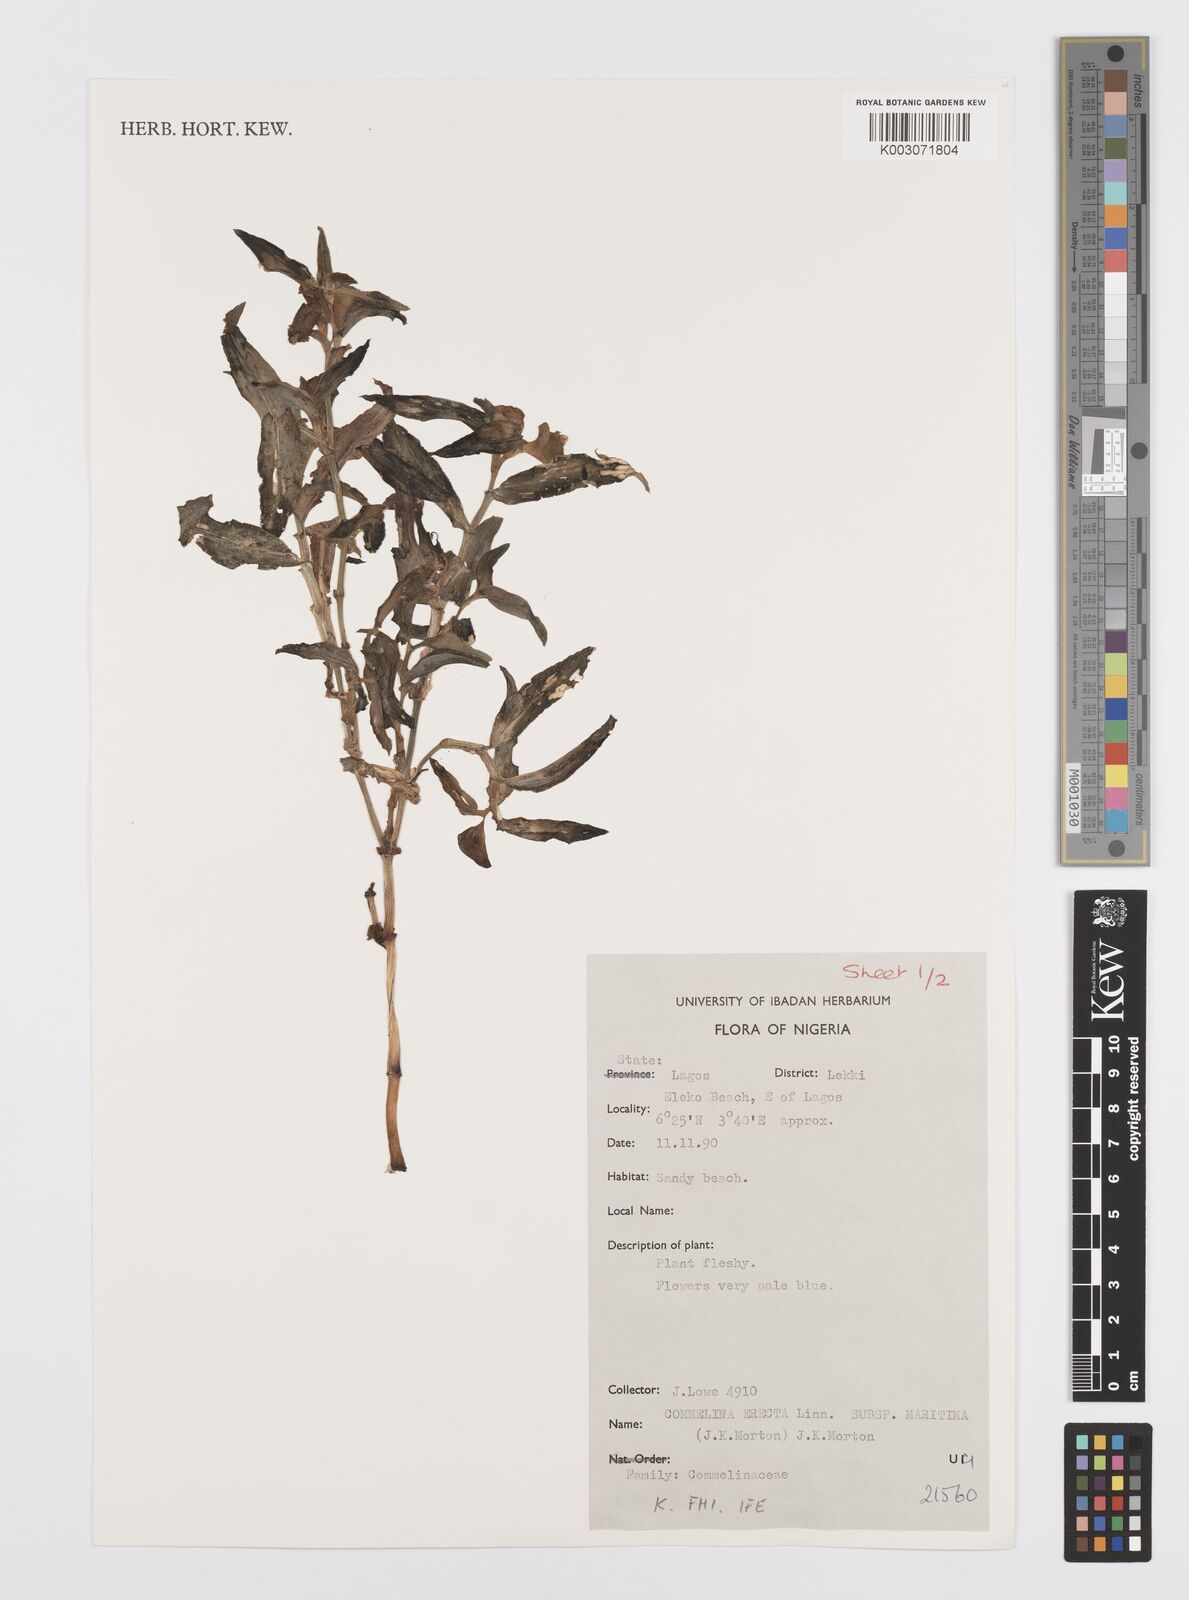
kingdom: Plantae
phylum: Tracheophyta
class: Liliopsida
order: Commelinales
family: Commelinaceae
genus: Commelina
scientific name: Commelina erecta
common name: Blousel blommetjie
